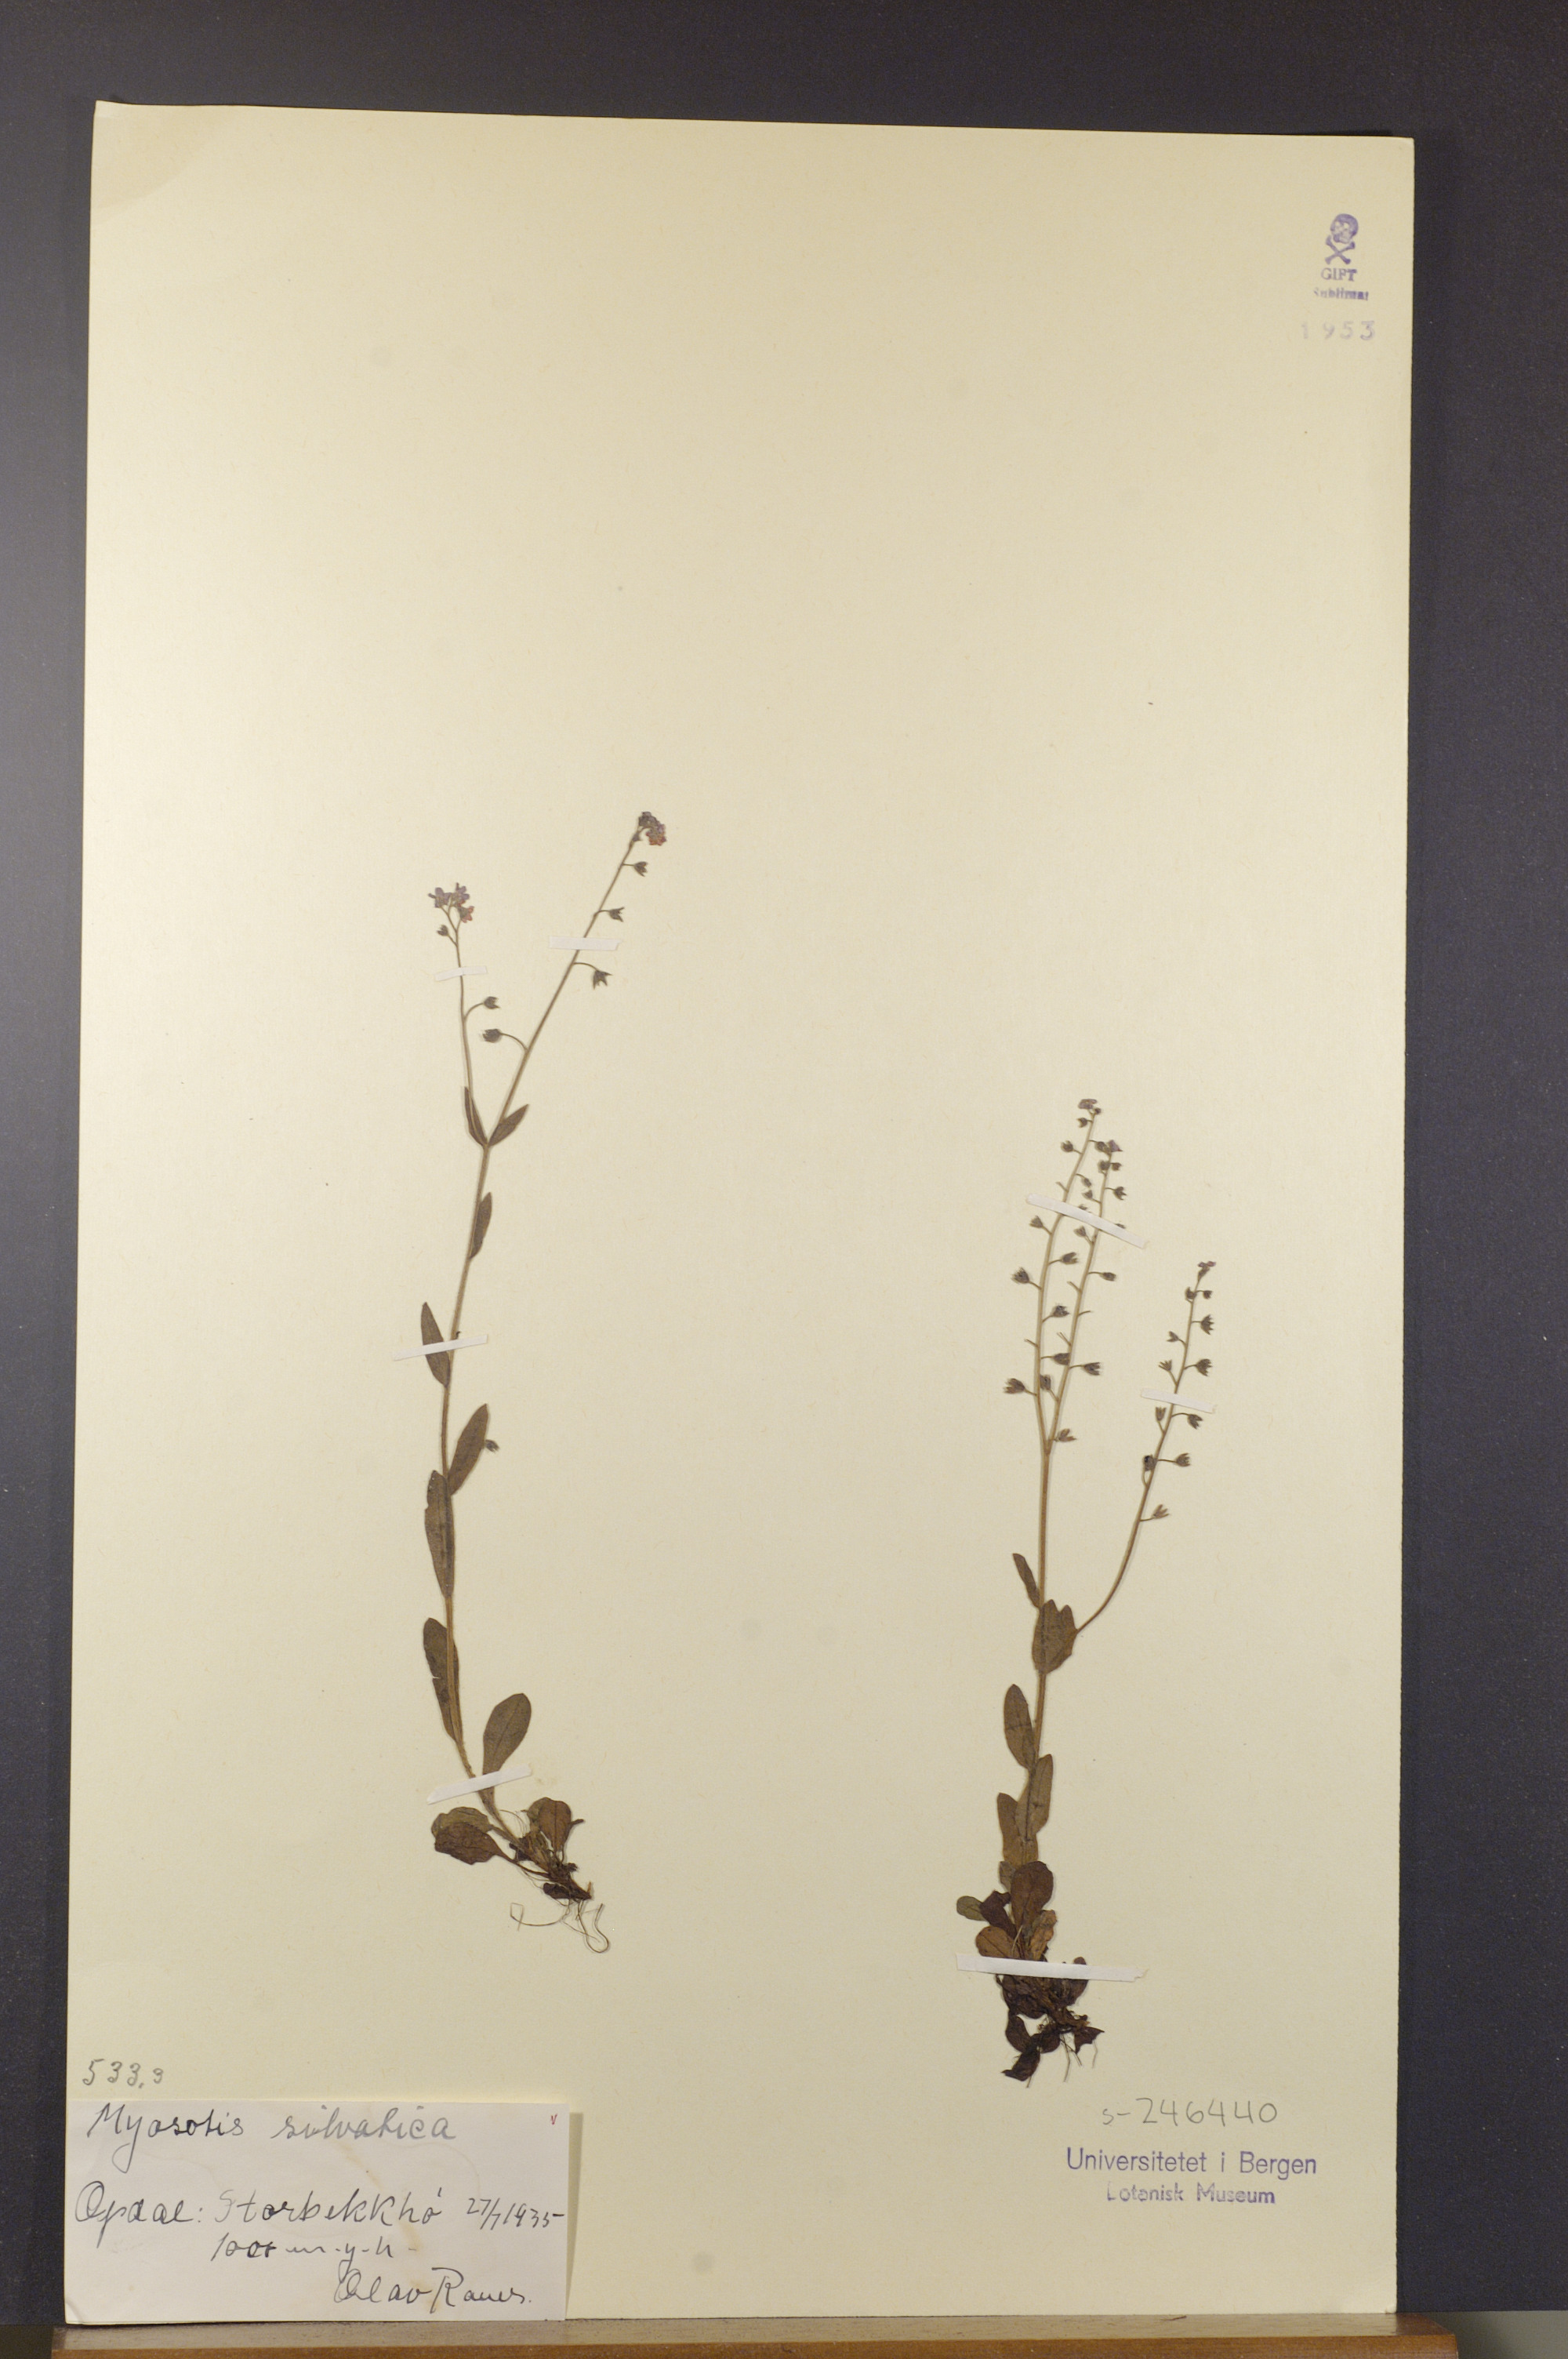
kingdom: Plantae
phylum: Tracheophyta
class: Magnoliopsida
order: Boraginales
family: Boraginaceae
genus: Myosotis
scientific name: Myosotis decumbens
